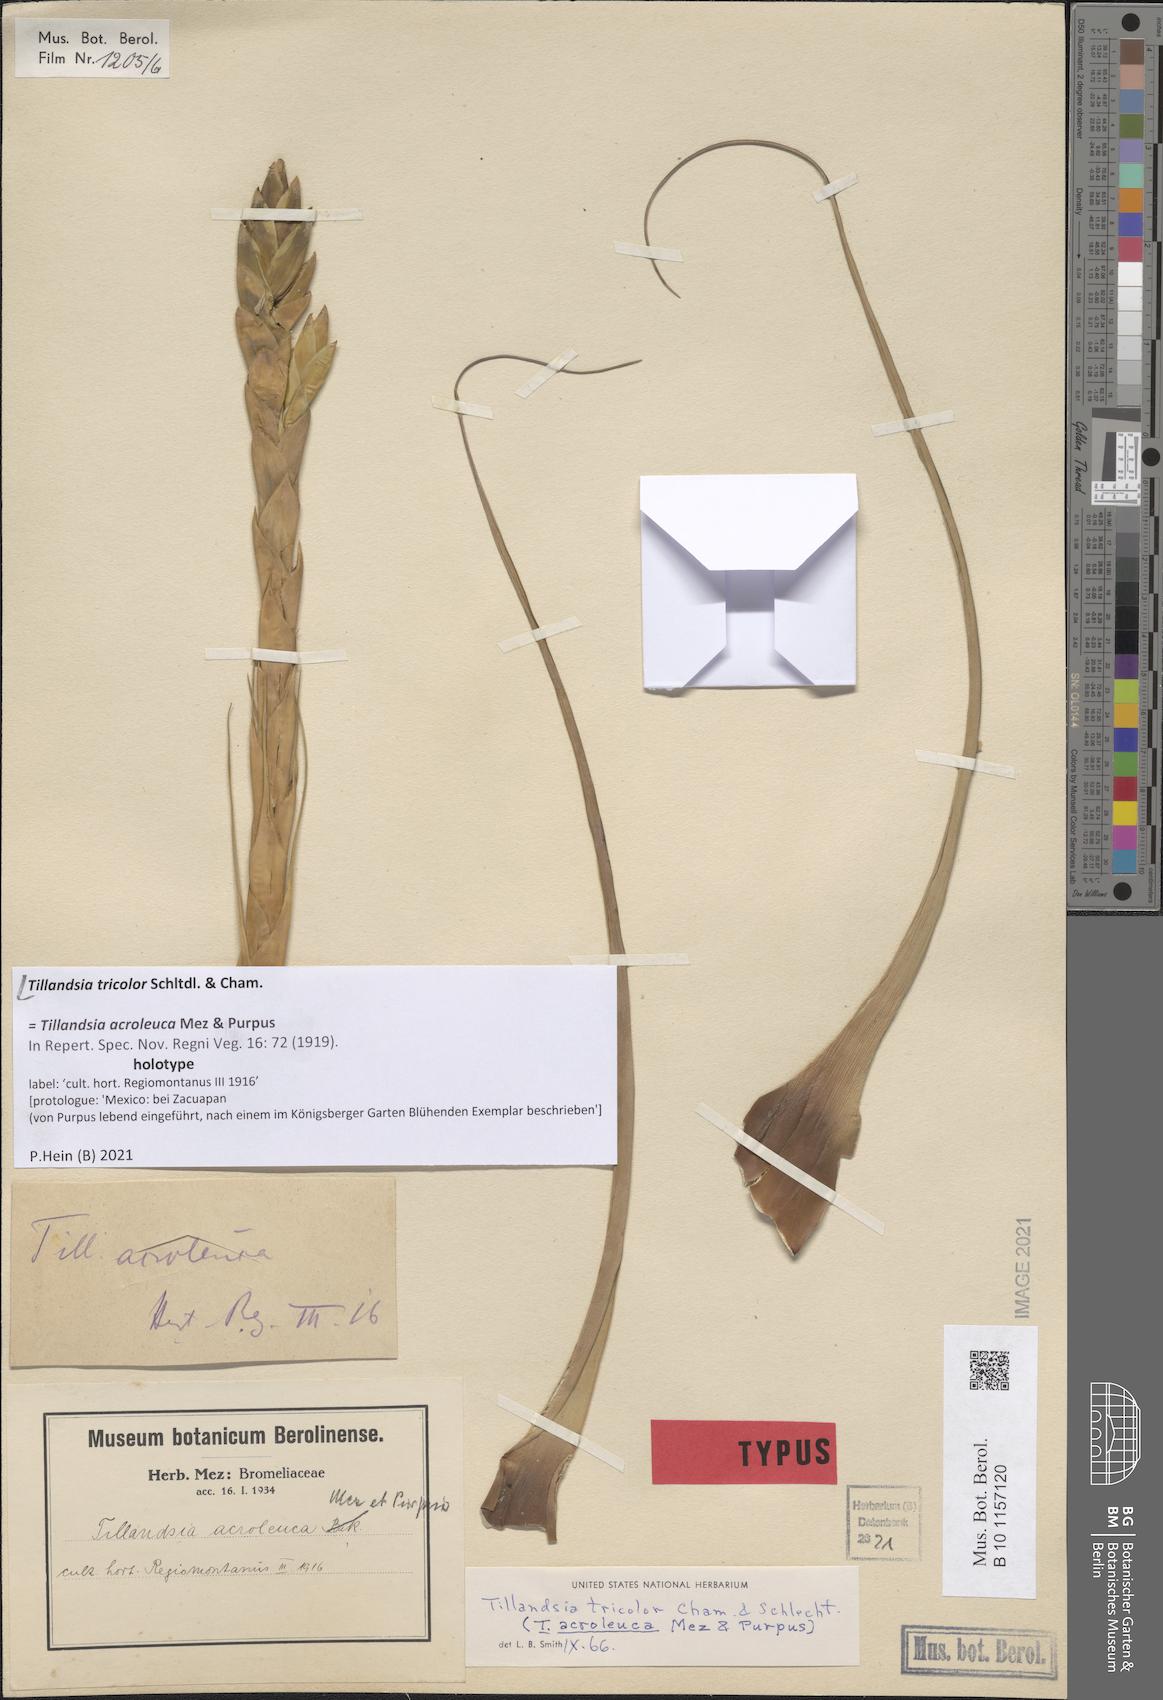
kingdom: Plantae
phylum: Tracheophyta
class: Liliopsida
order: Poales
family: Bromeliaceae
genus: Tillandsia
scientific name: Tillandsia tricolor
